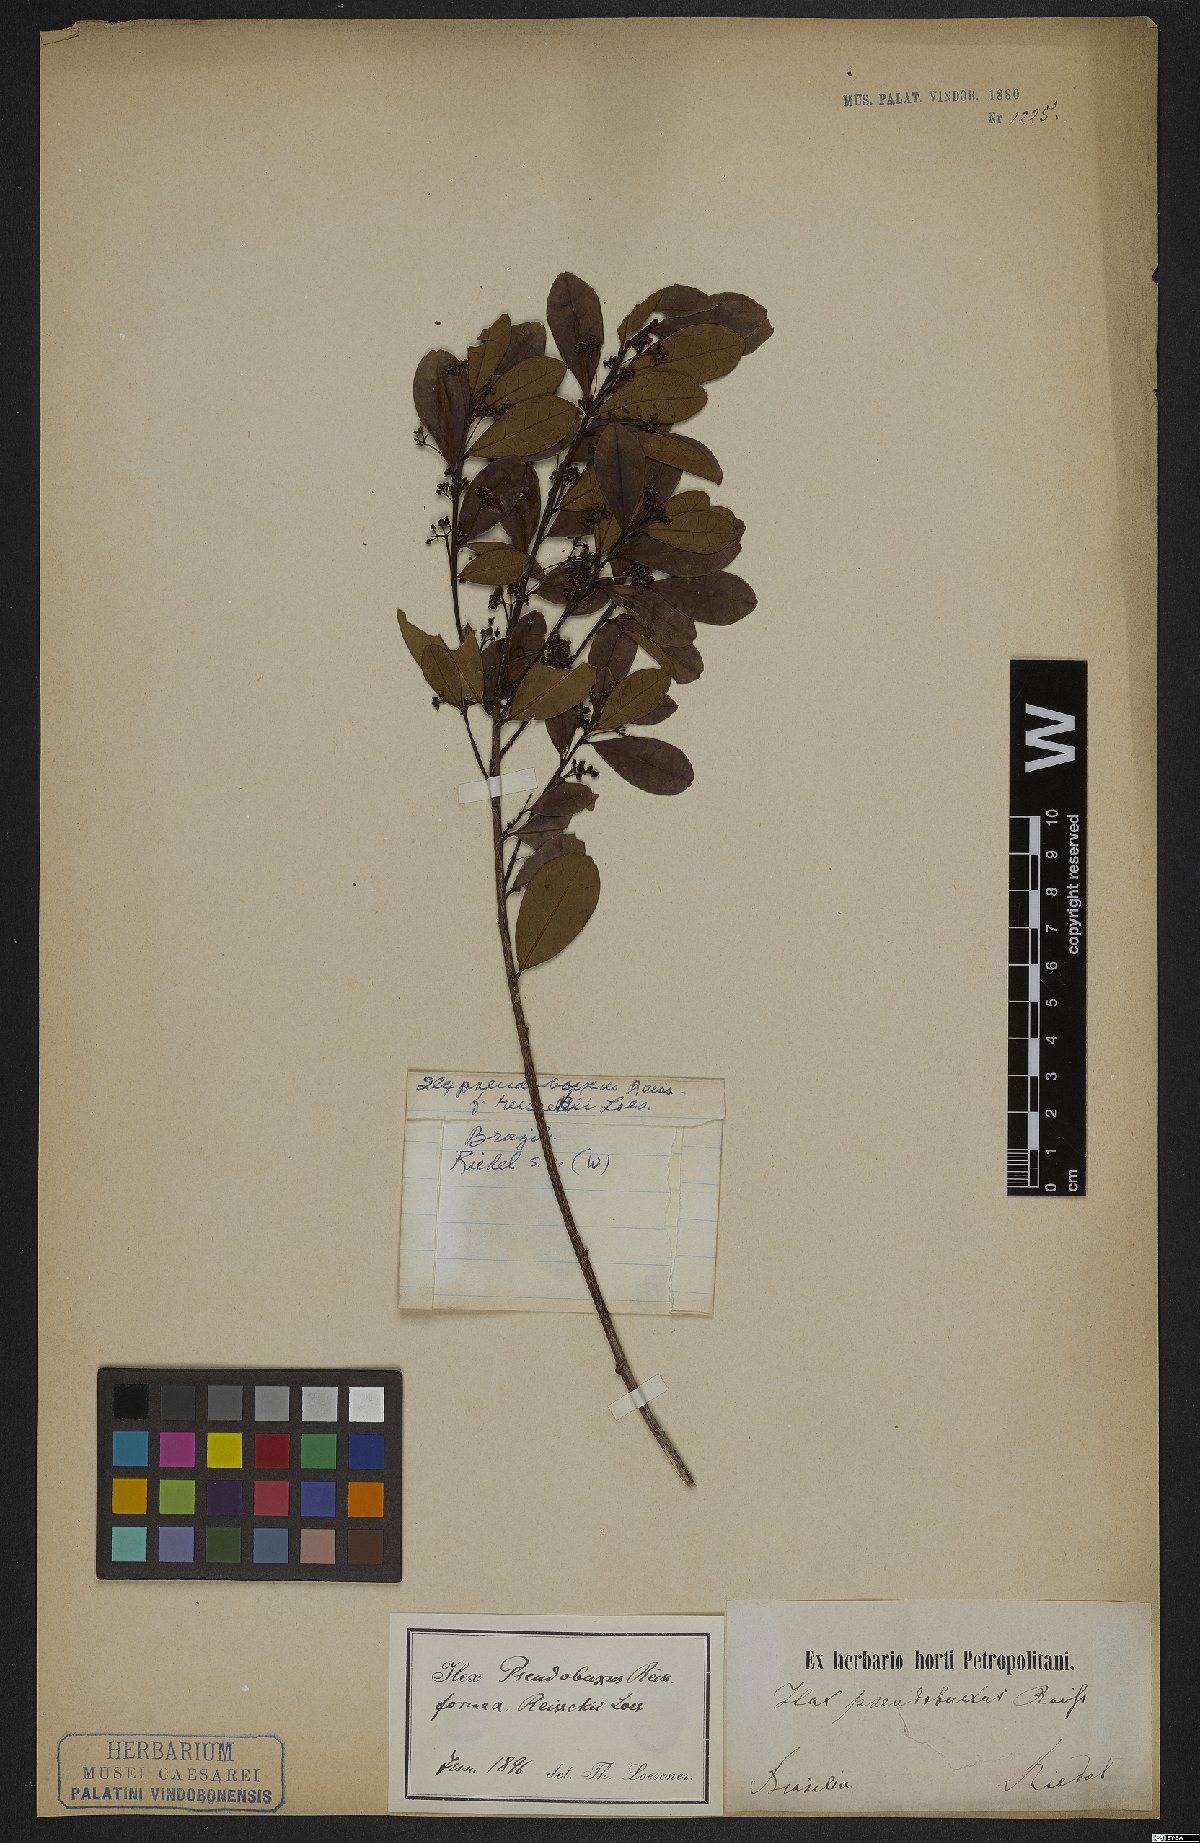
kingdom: Plantae
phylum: Tracheophyta
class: Magnoliopsida
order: Aquifoliales
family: Aquifoliaceae
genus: Ilex
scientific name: Ilex pseudobuxus
